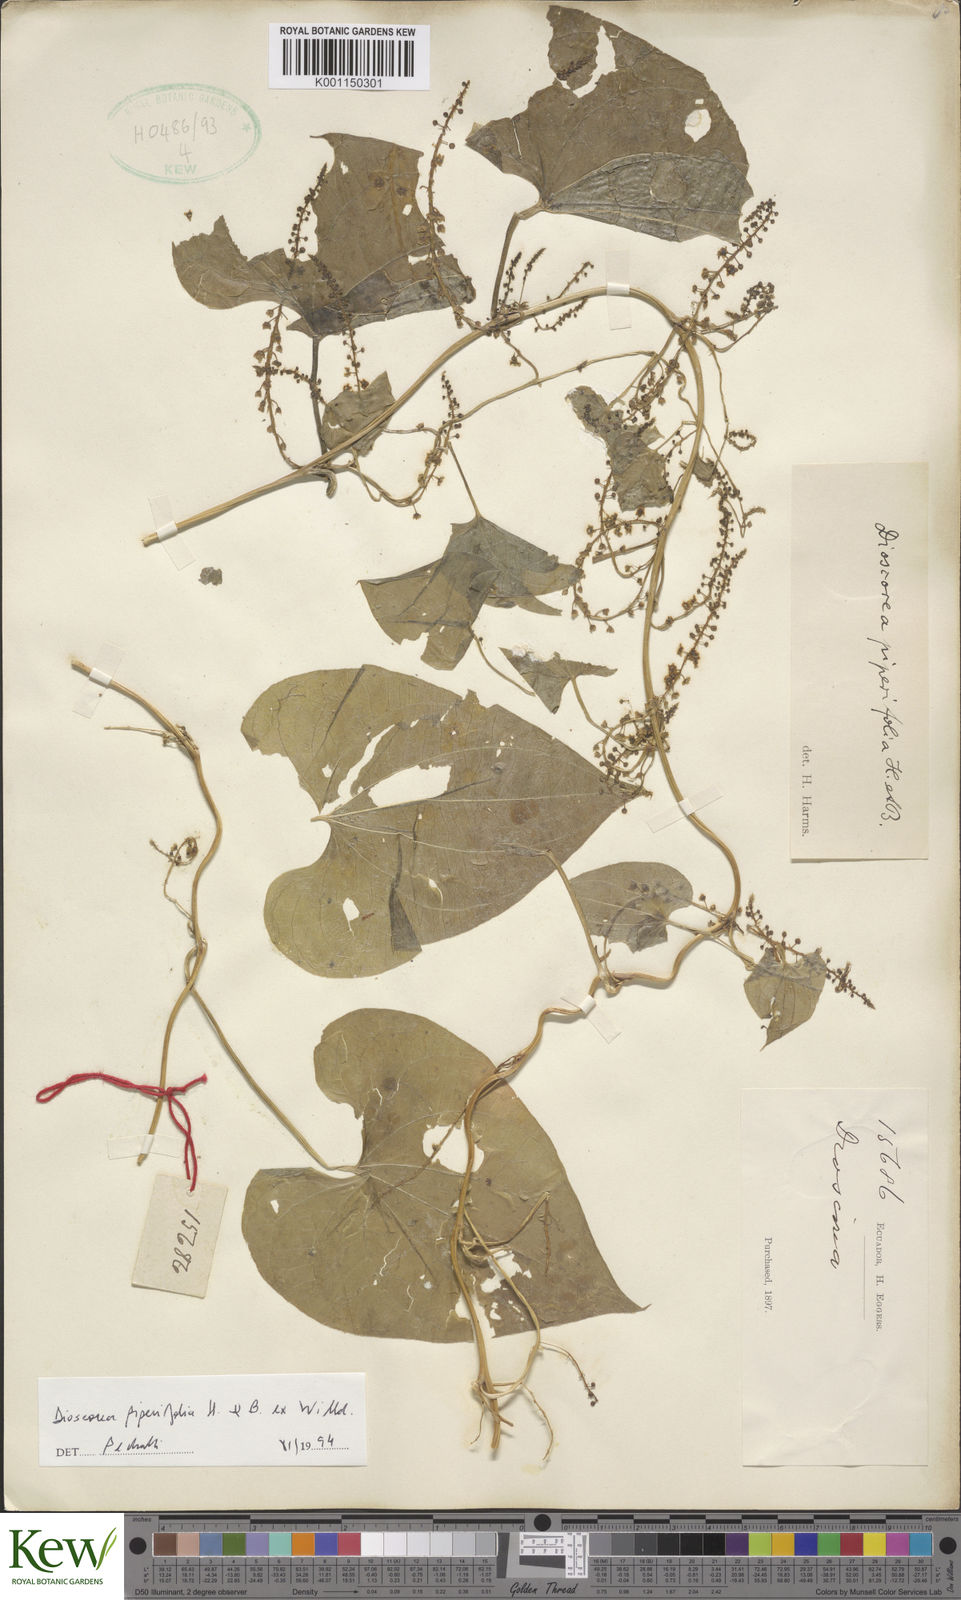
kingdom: Plantae
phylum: Tracheophyta
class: Liliopsida
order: Dioscoreales
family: Dioscoreaceae
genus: Dioscorea
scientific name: Dioscorea piperifolia
